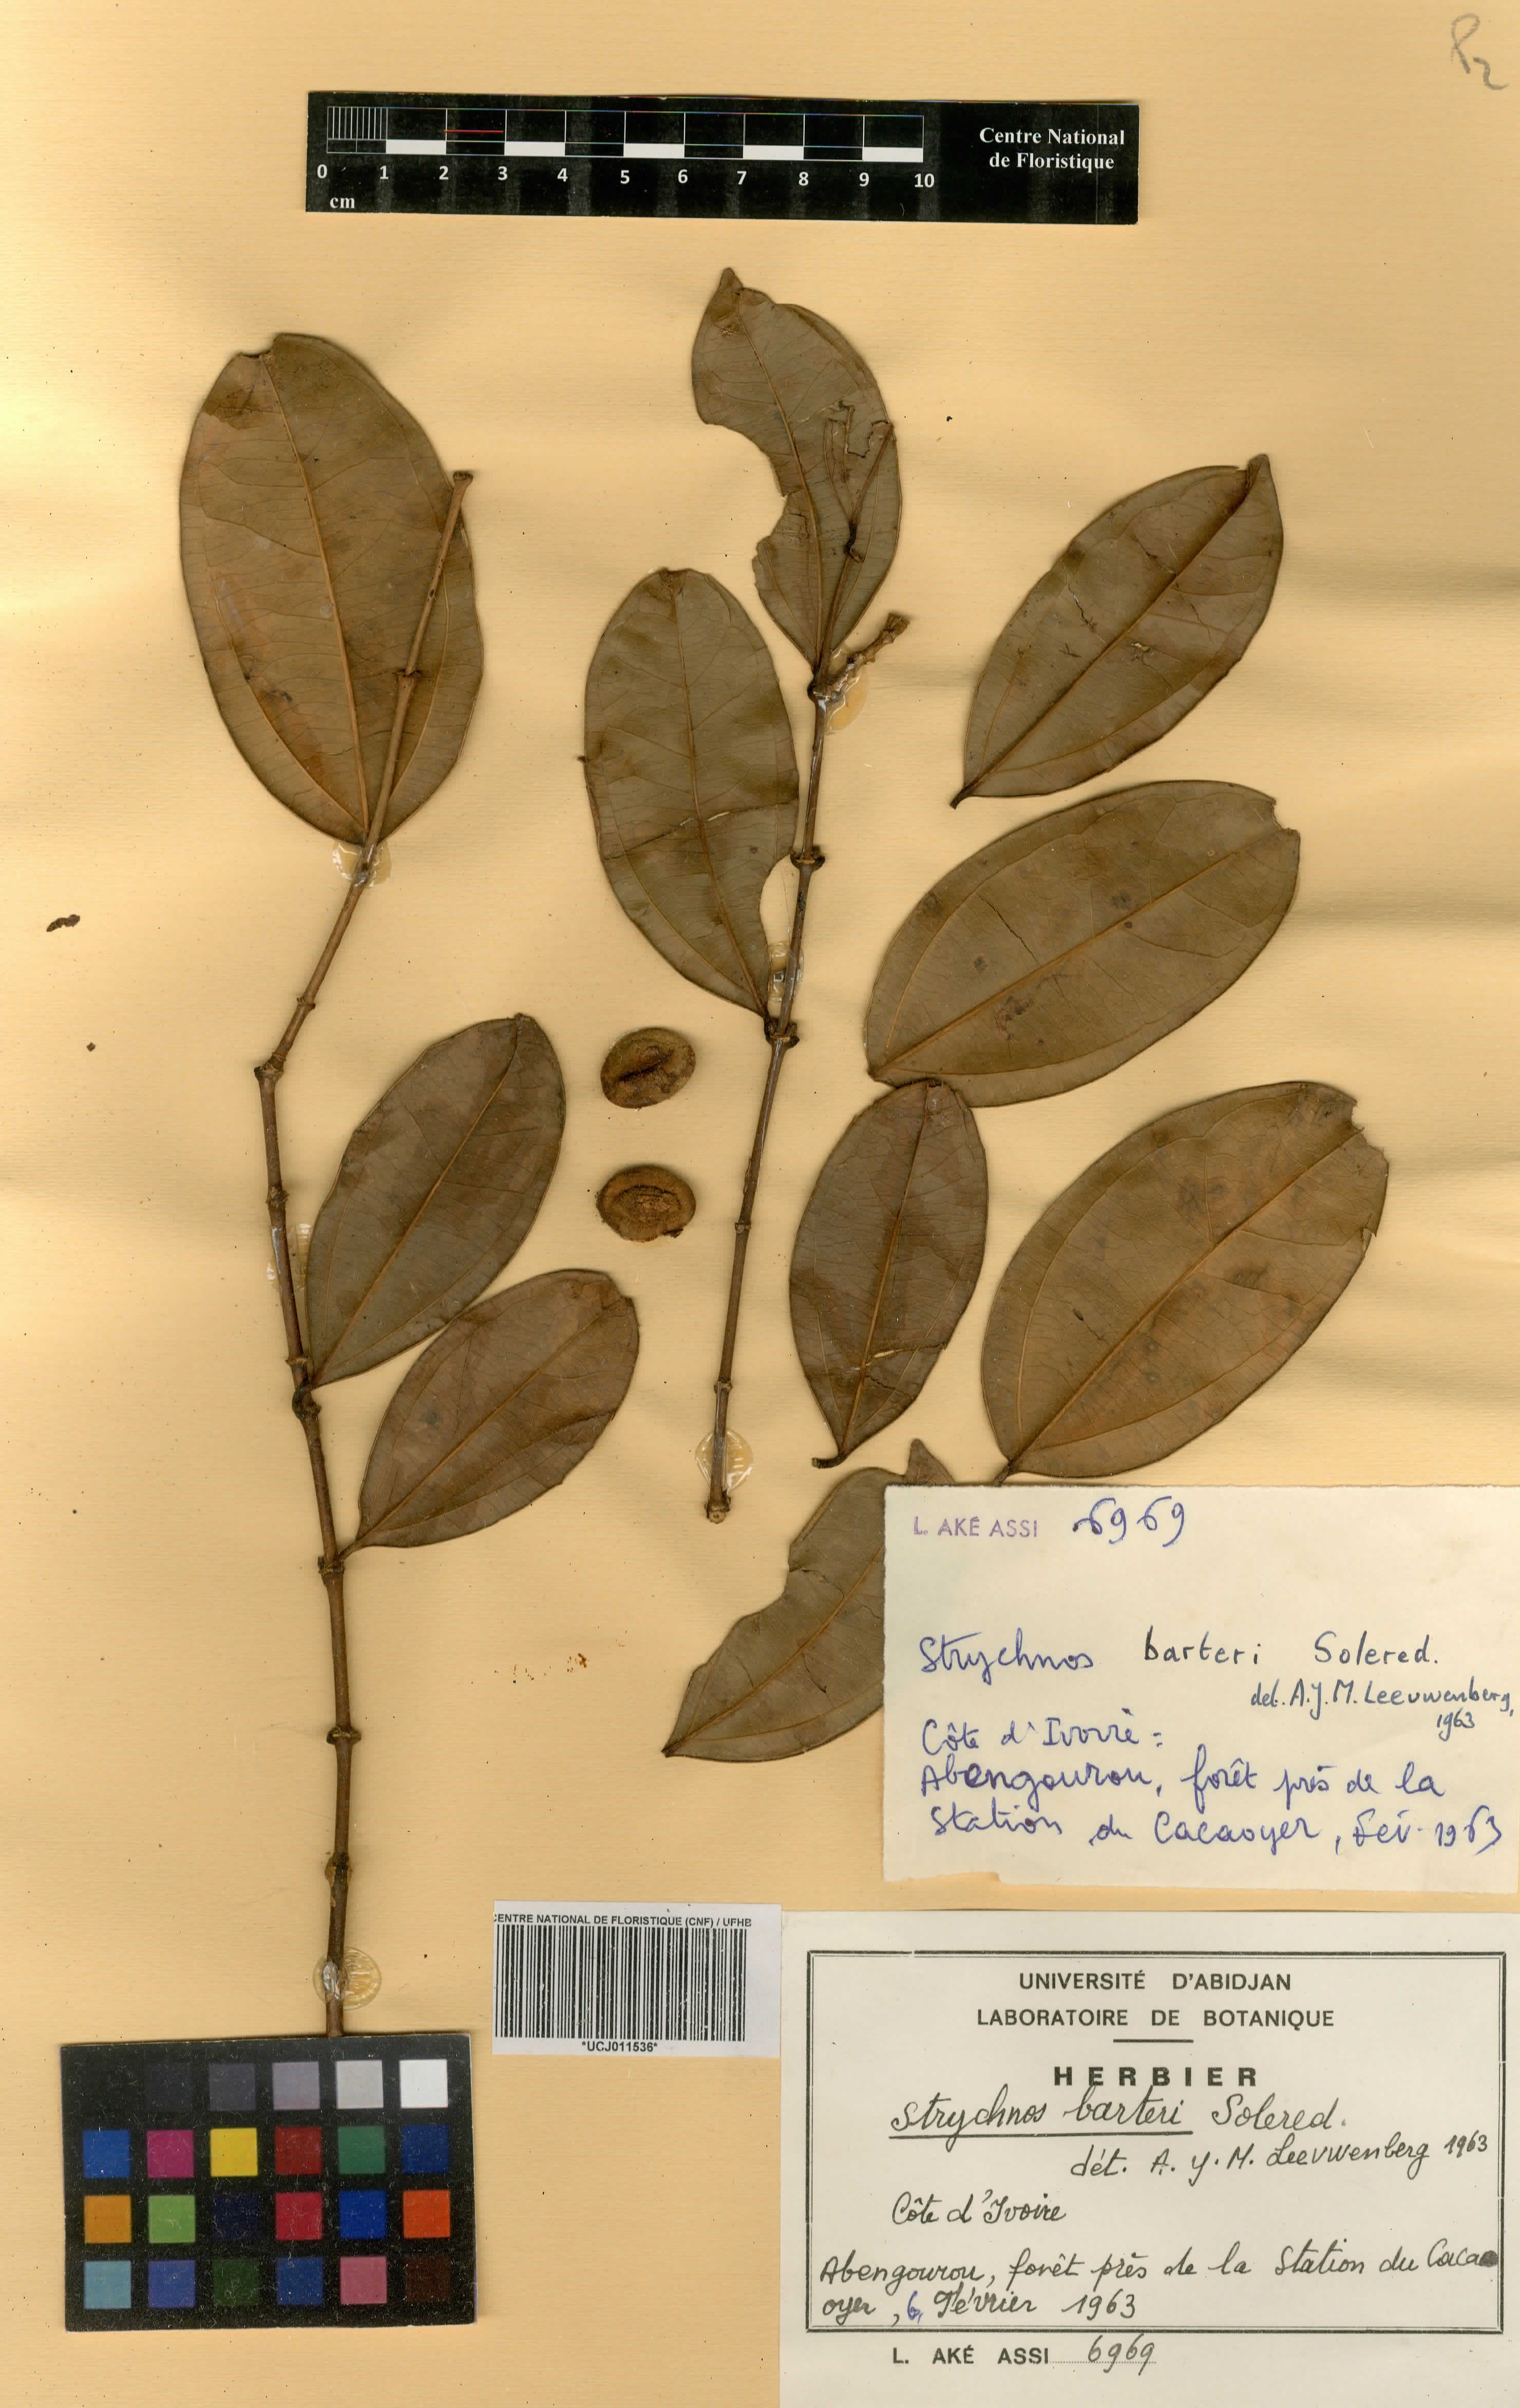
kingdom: Plantae
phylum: Tracheophyta
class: Magnoliopsida
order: Gentianales
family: Loganiaceae
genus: Strychnos
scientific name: Strychnos barteri
